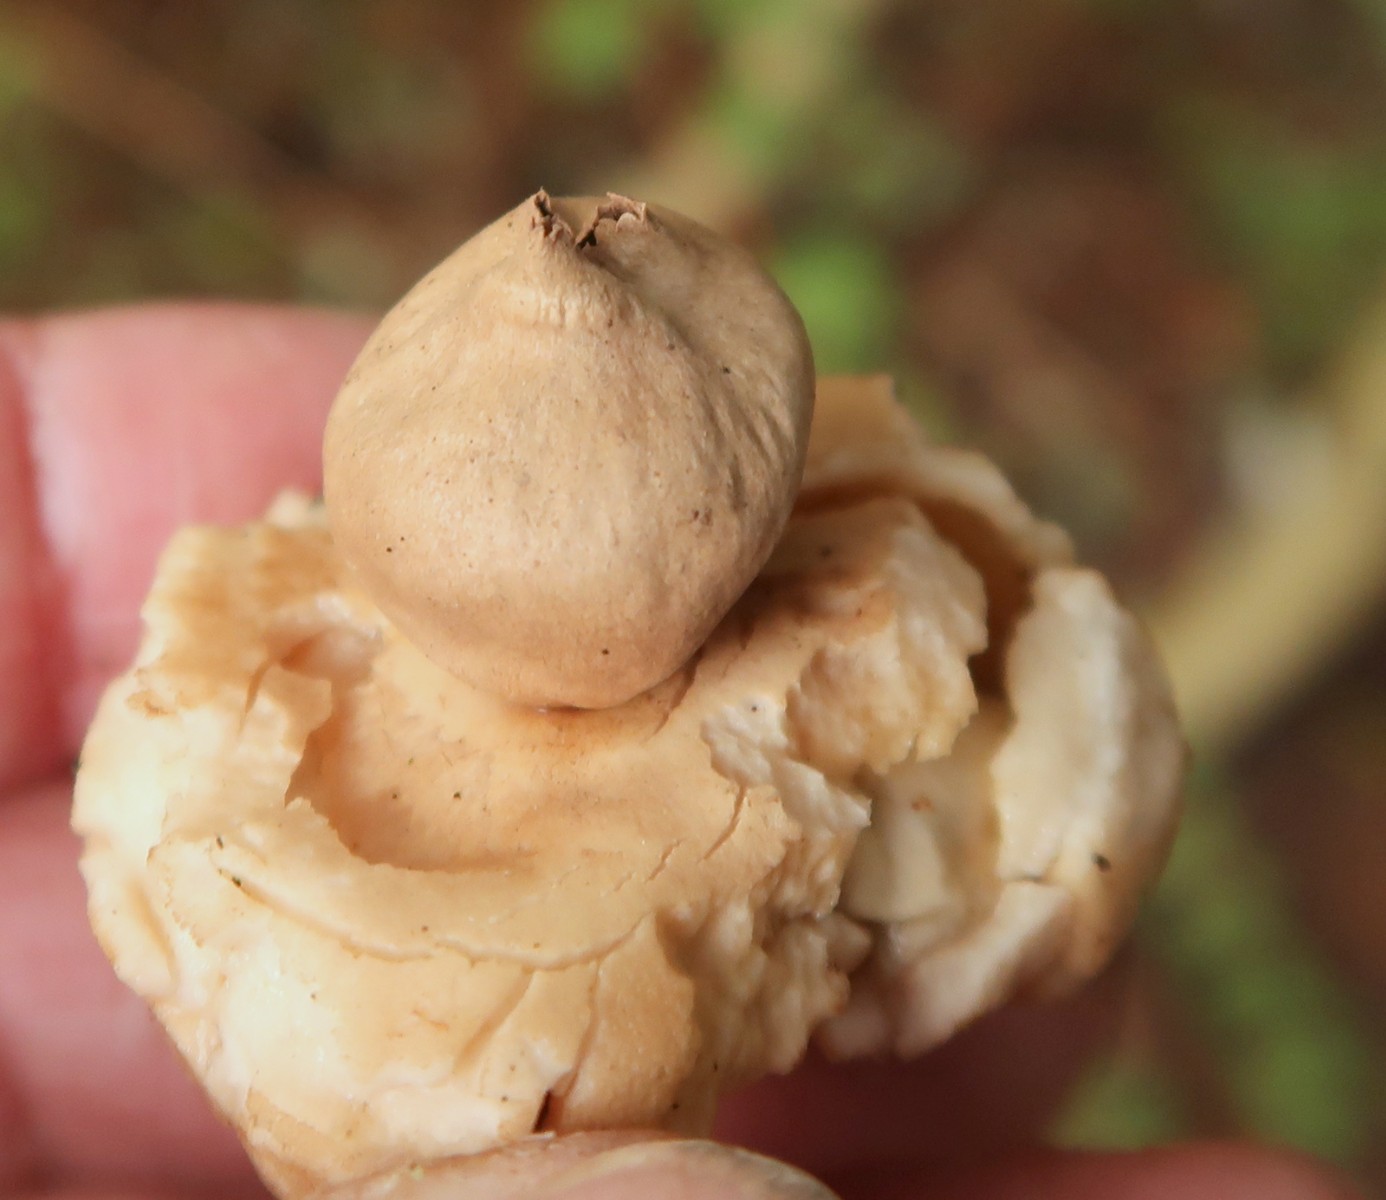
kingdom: Fungi
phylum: Basidiomycota
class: Agaricomycetes
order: Geastrales
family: Geastraceae
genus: Geastrum
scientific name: Geastrum michelianum
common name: kødet stjernebold
